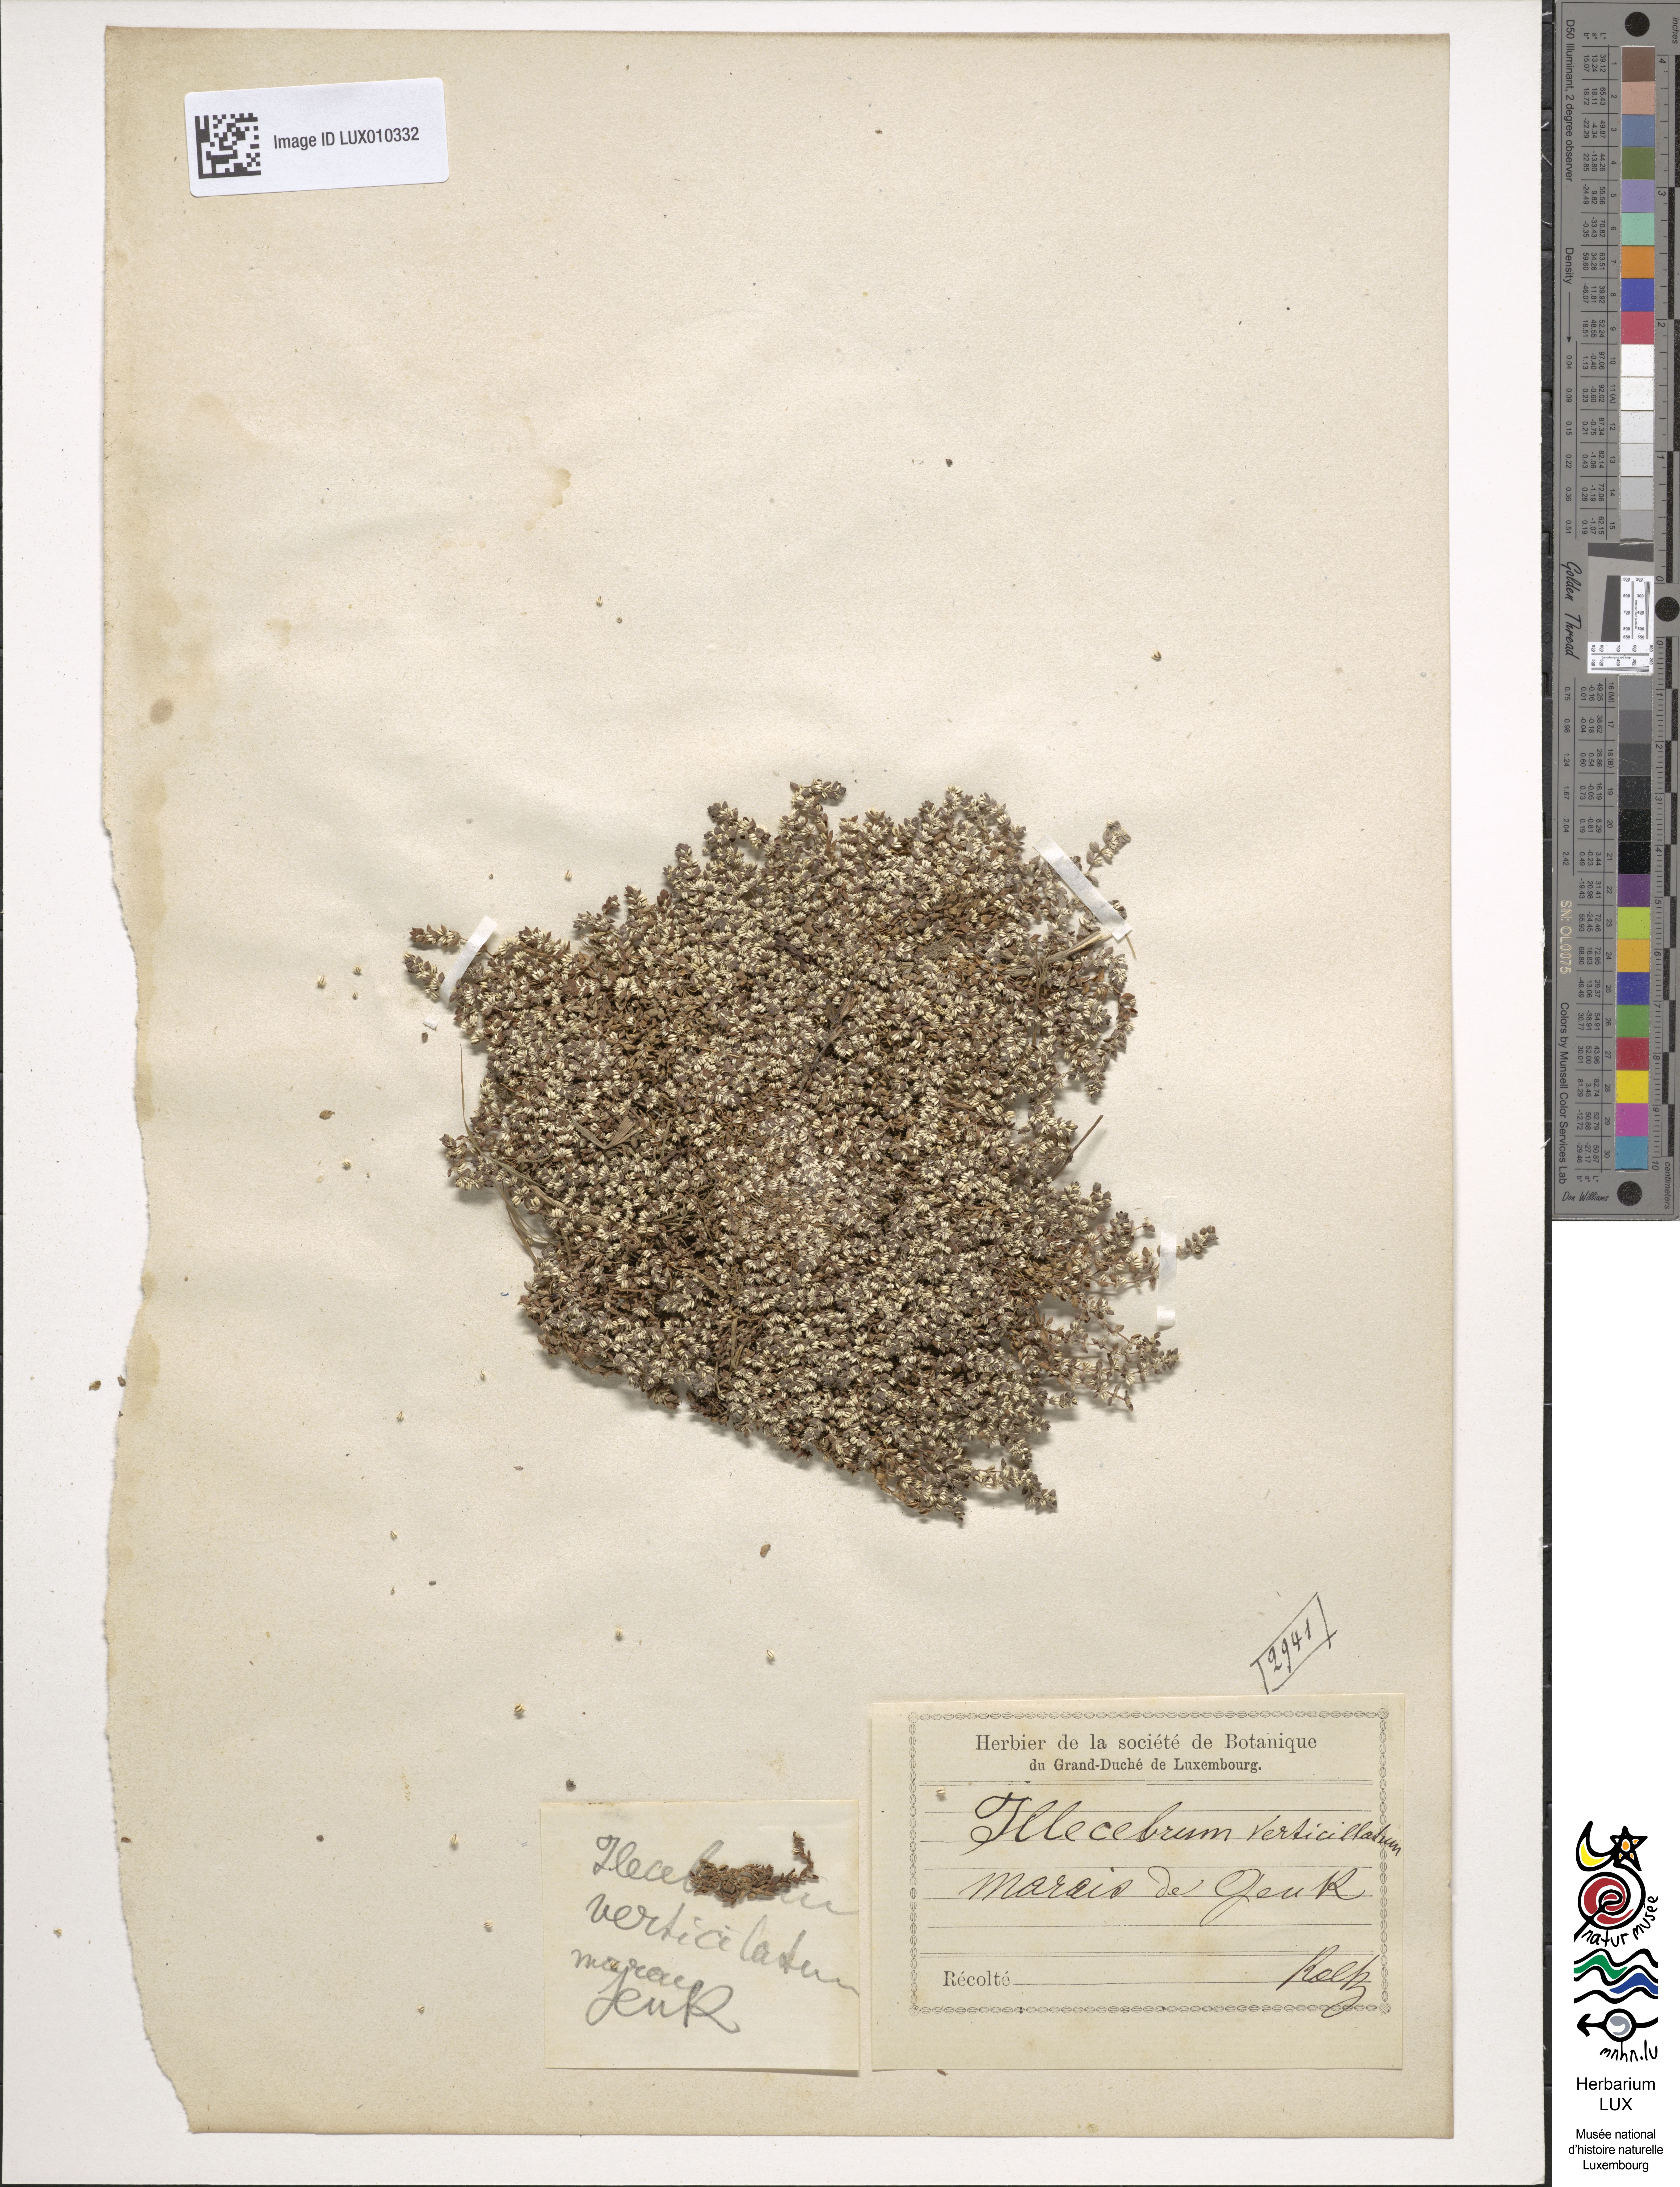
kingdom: Plantae
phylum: Tracheophyta
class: Magnoliopsida
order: Caryophyllales
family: Caryophyllaceae
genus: Illecebrum
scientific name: Illecebrum verticillatum
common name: Coral necklace
